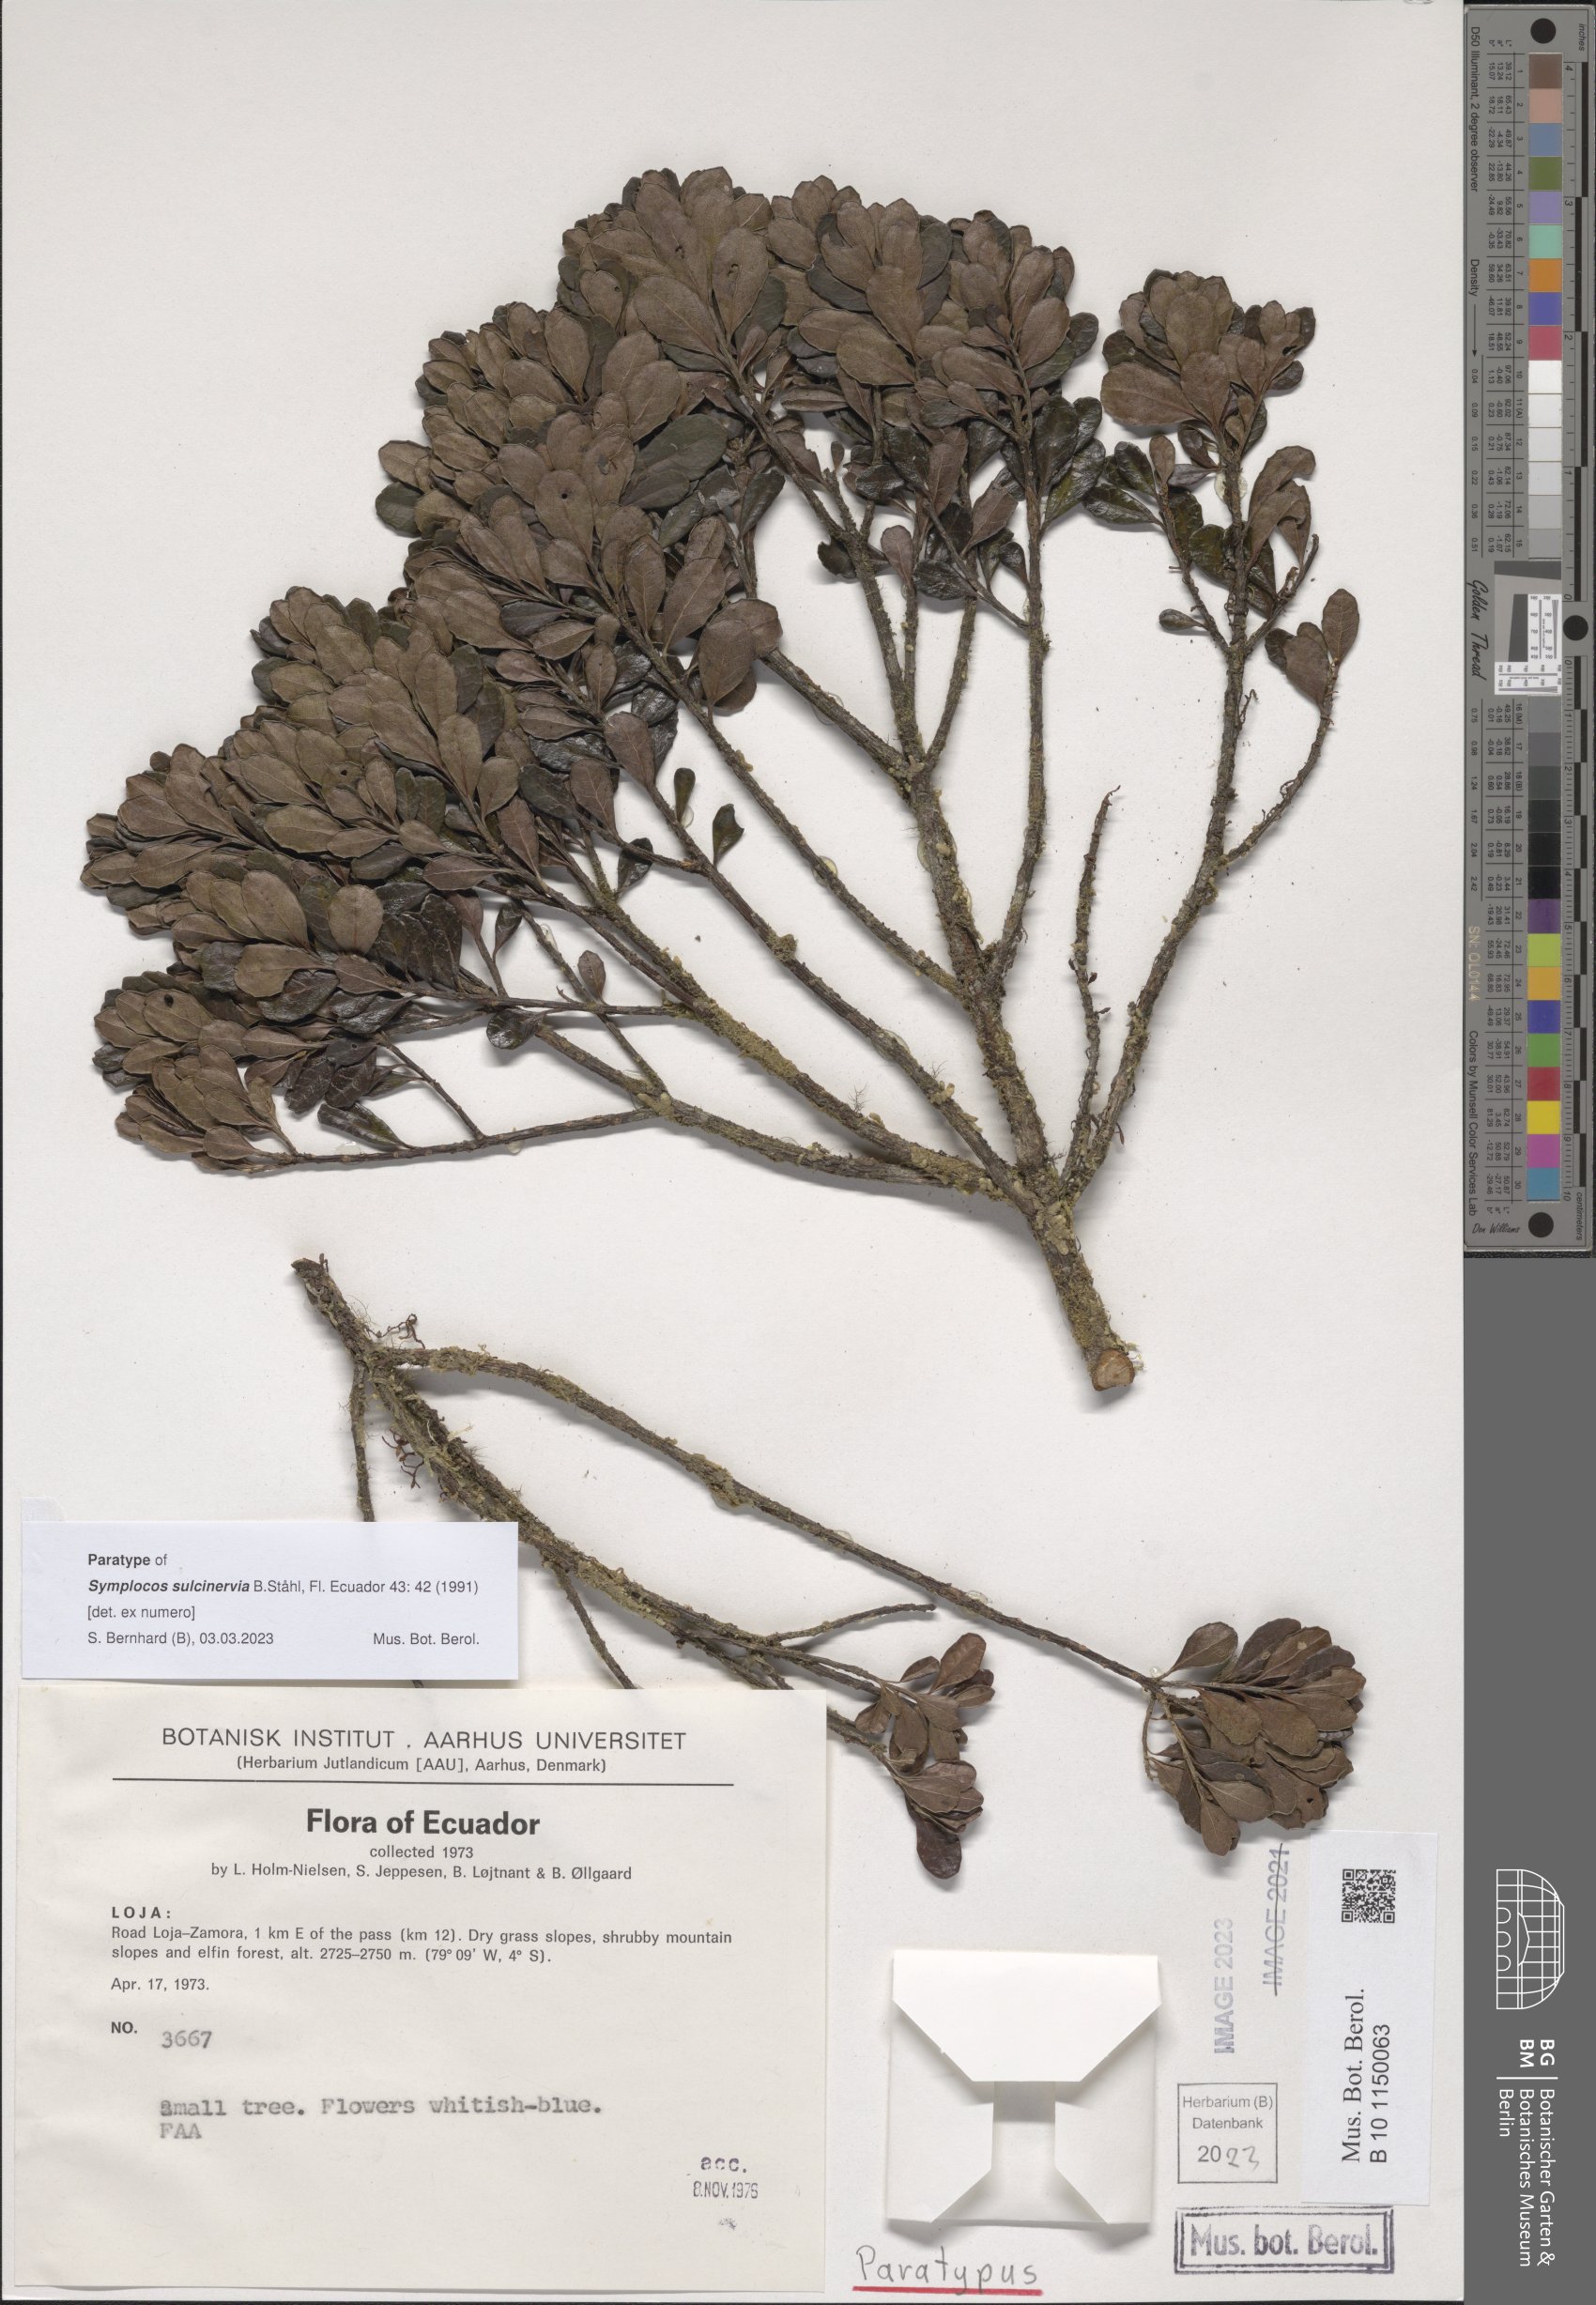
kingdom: Plantae
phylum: Tracheophyta
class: Magnoliopsida
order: Ericales
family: Symplocaceae
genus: Symplocos
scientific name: Symplocos sulcinervia
